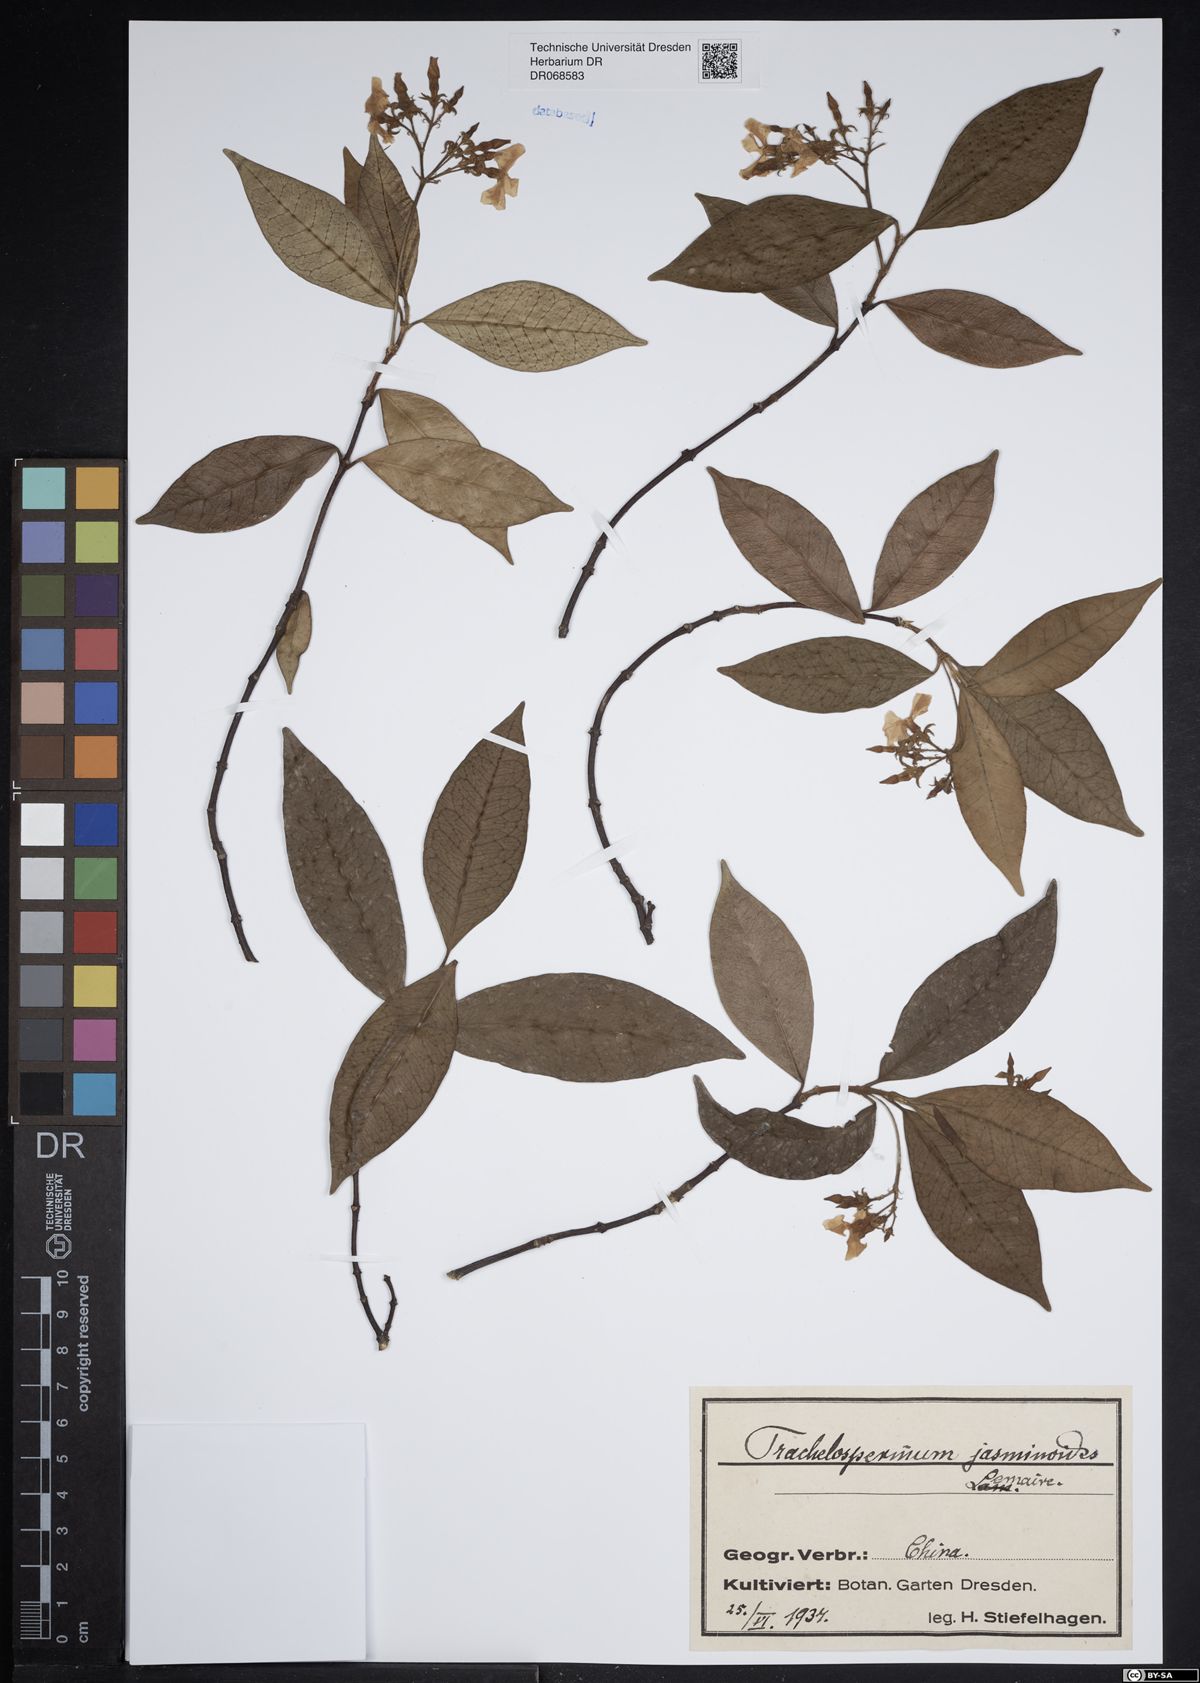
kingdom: Plantae
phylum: Tracheophyta
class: Magnoliopsida
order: Gentianales
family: Apocynaceae
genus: Trachelospermum
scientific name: Trachelospermum jasminoides
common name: Confederate jasmine
